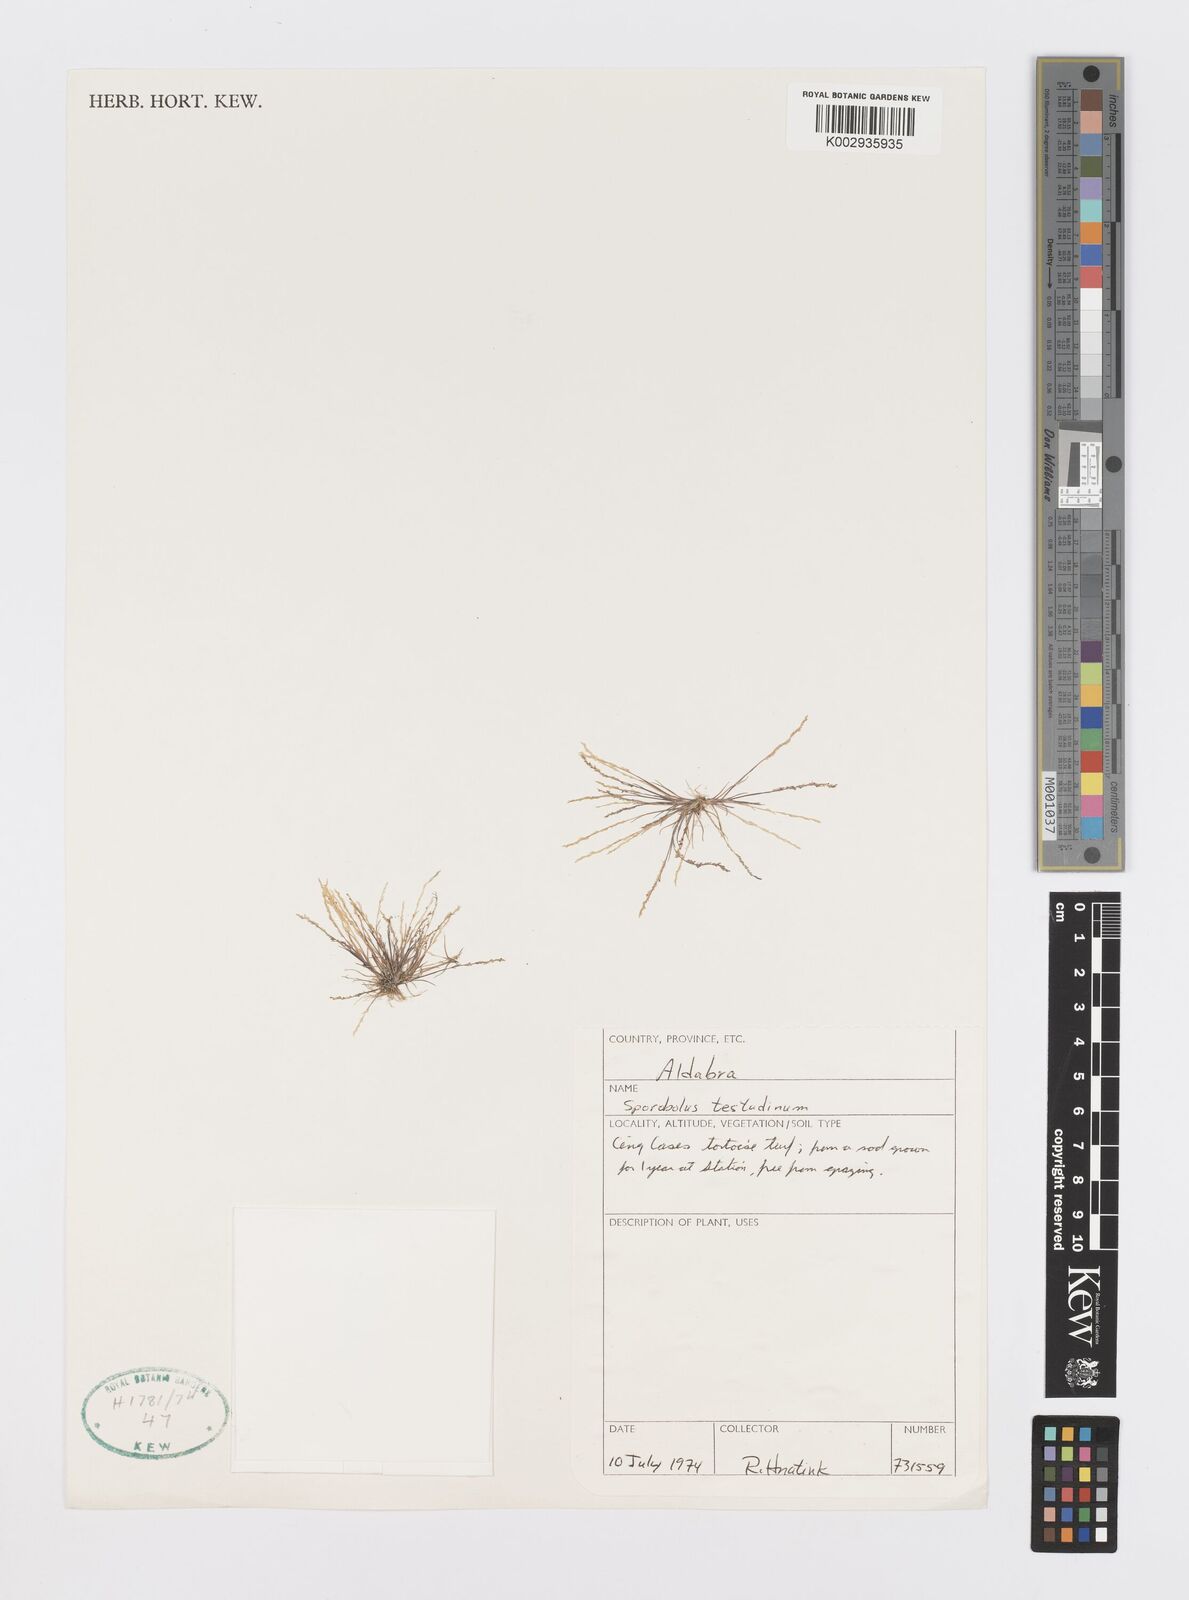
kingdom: Plantae
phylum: Tracheophyta
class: Liliopsida
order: Poales
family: Poaceae
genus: Sporobolus
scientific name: Sporobolus testudinum
